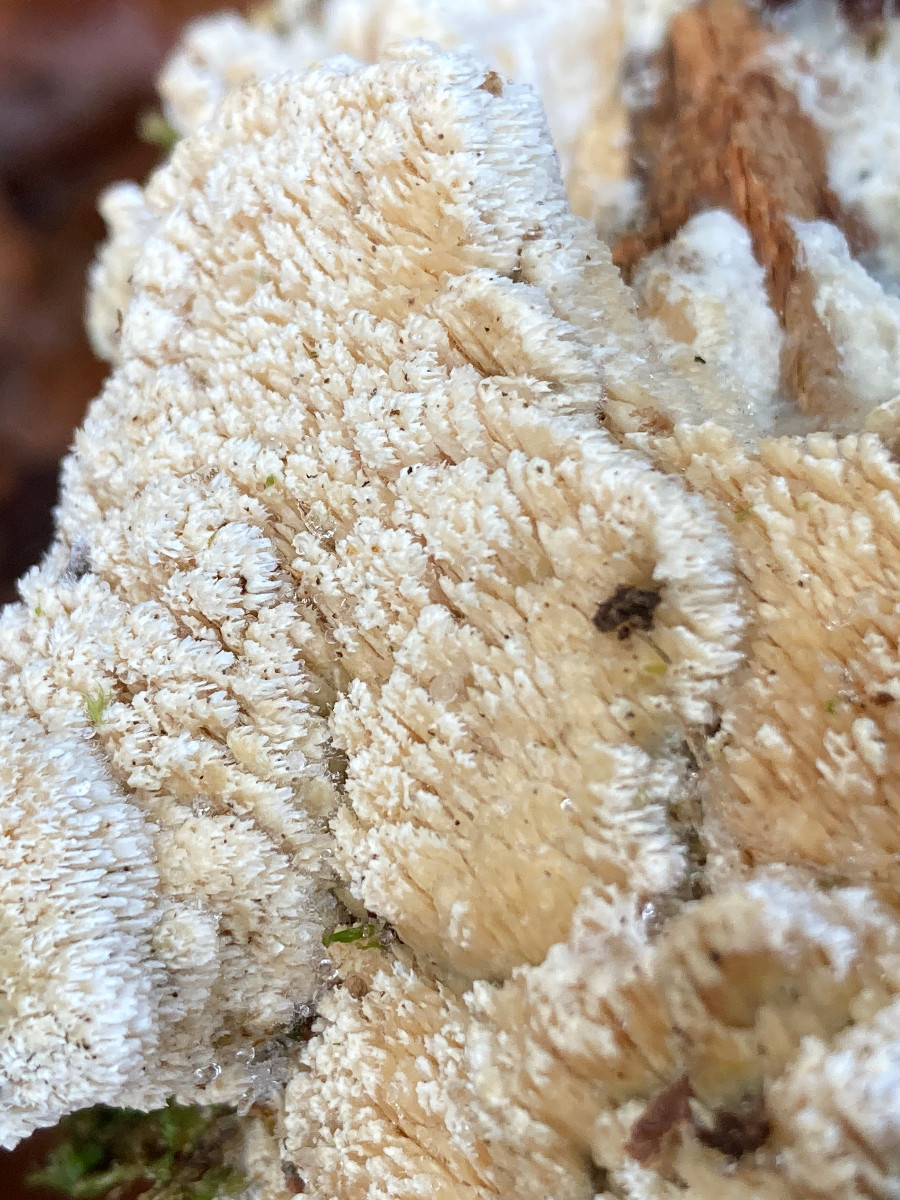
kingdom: Fungi
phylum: Basidiomycota
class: Agaricomycetes
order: Corticiales
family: Corticiaceae
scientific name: Corticiaceae
